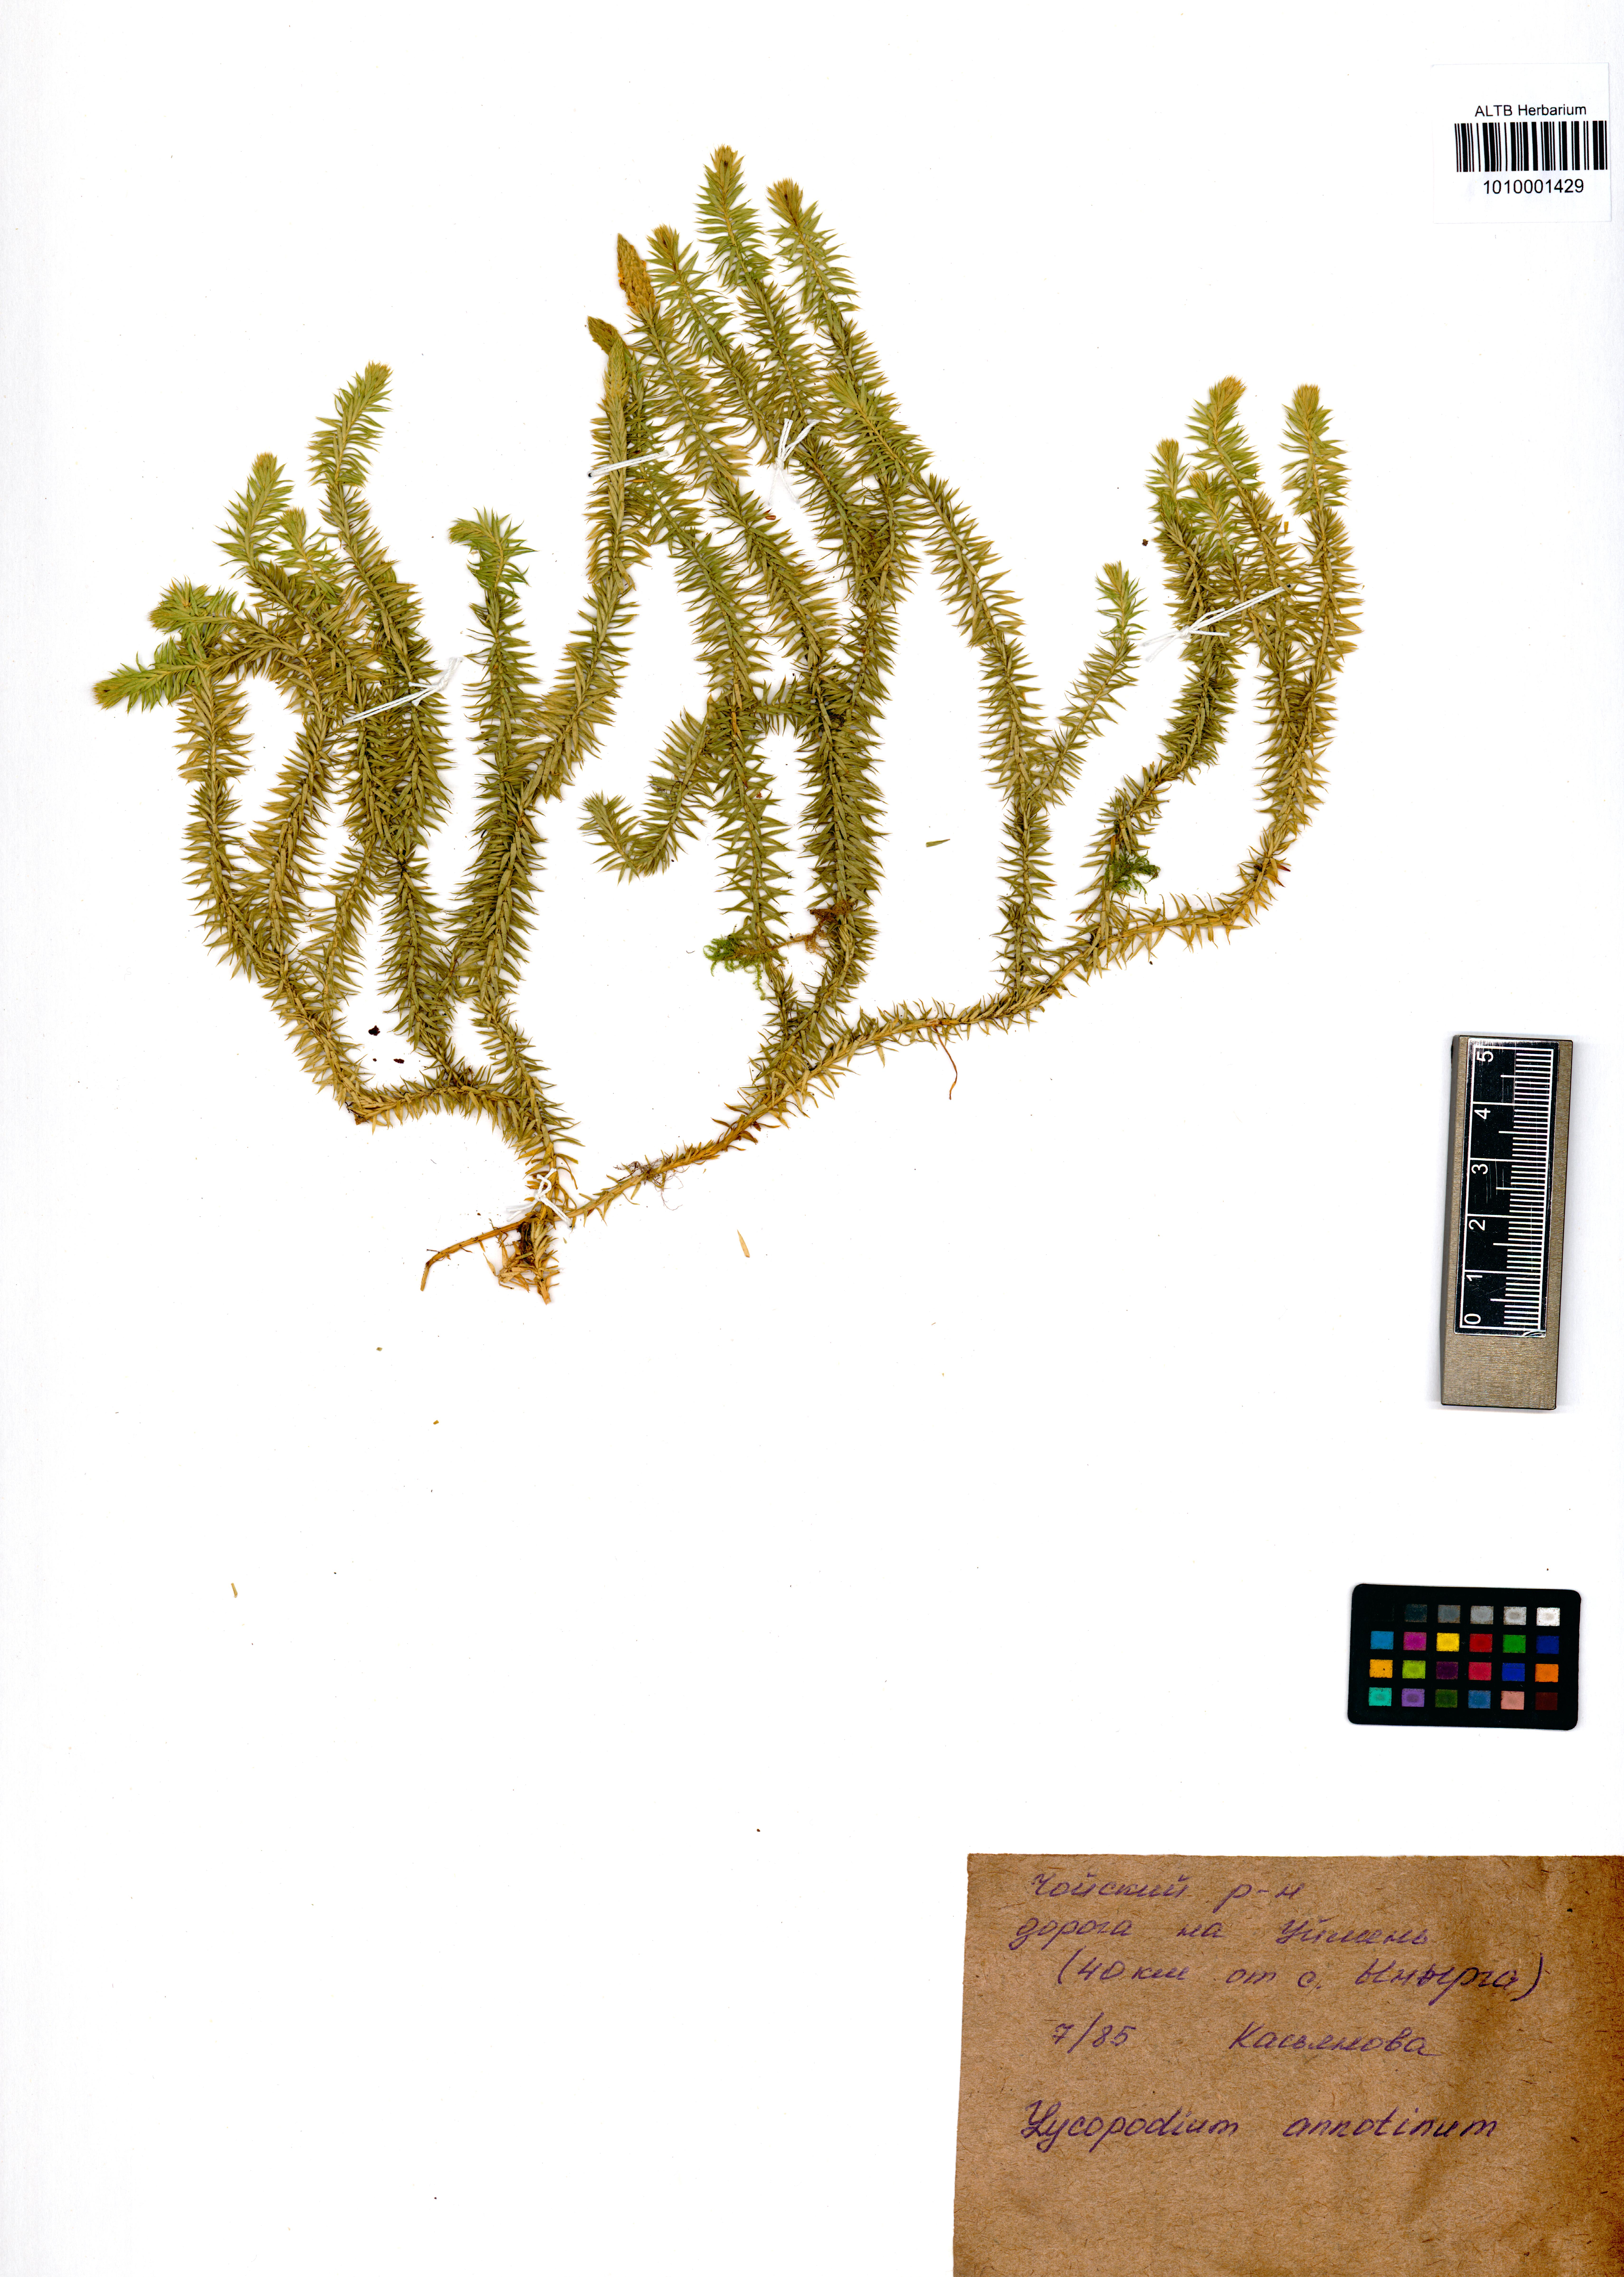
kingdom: Plantae
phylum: Tracheophyta
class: Lycopodiopsida
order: Lycopodiales
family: Lycopodiaceae
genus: Spinulum
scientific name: Spinulum annotinum
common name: Interrupted club-moss
